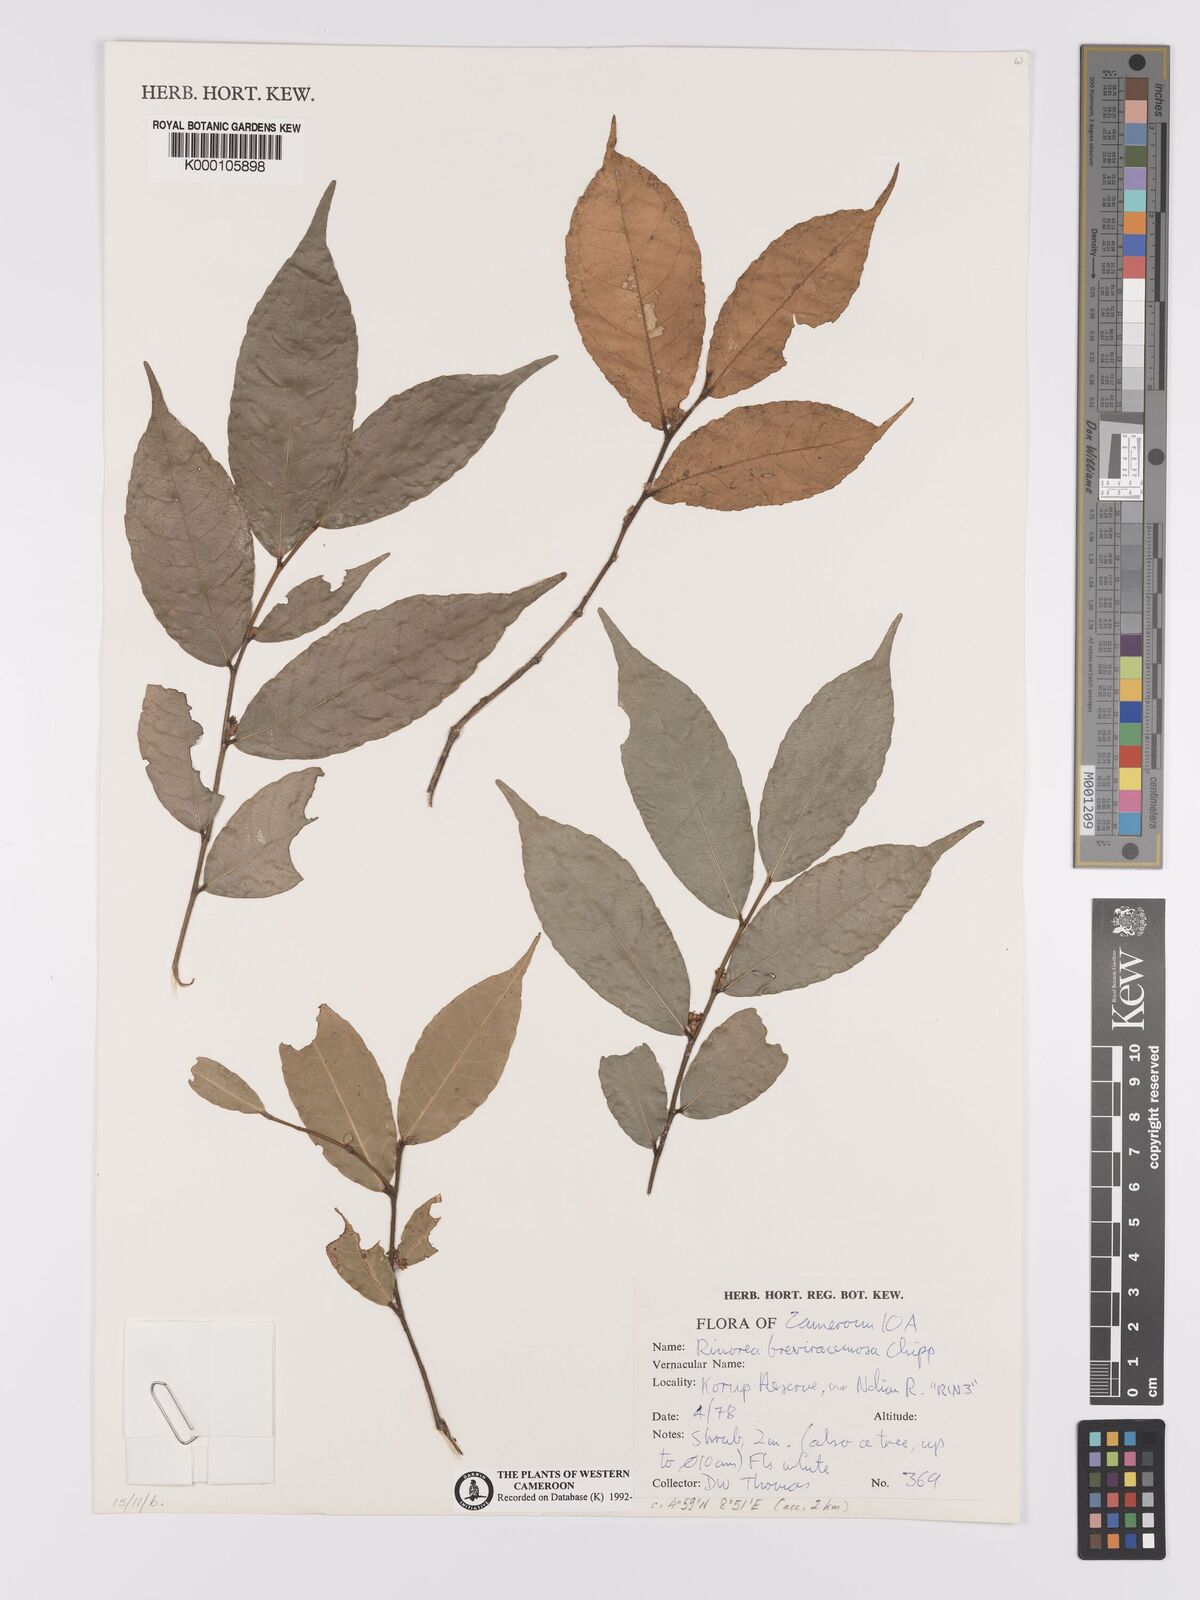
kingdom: Plantae
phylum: Tracheophyta
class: Magnoliopsida
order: Malpighiales
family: Violaceae
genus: Rinorea
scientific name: Rinorea breviracemosa
